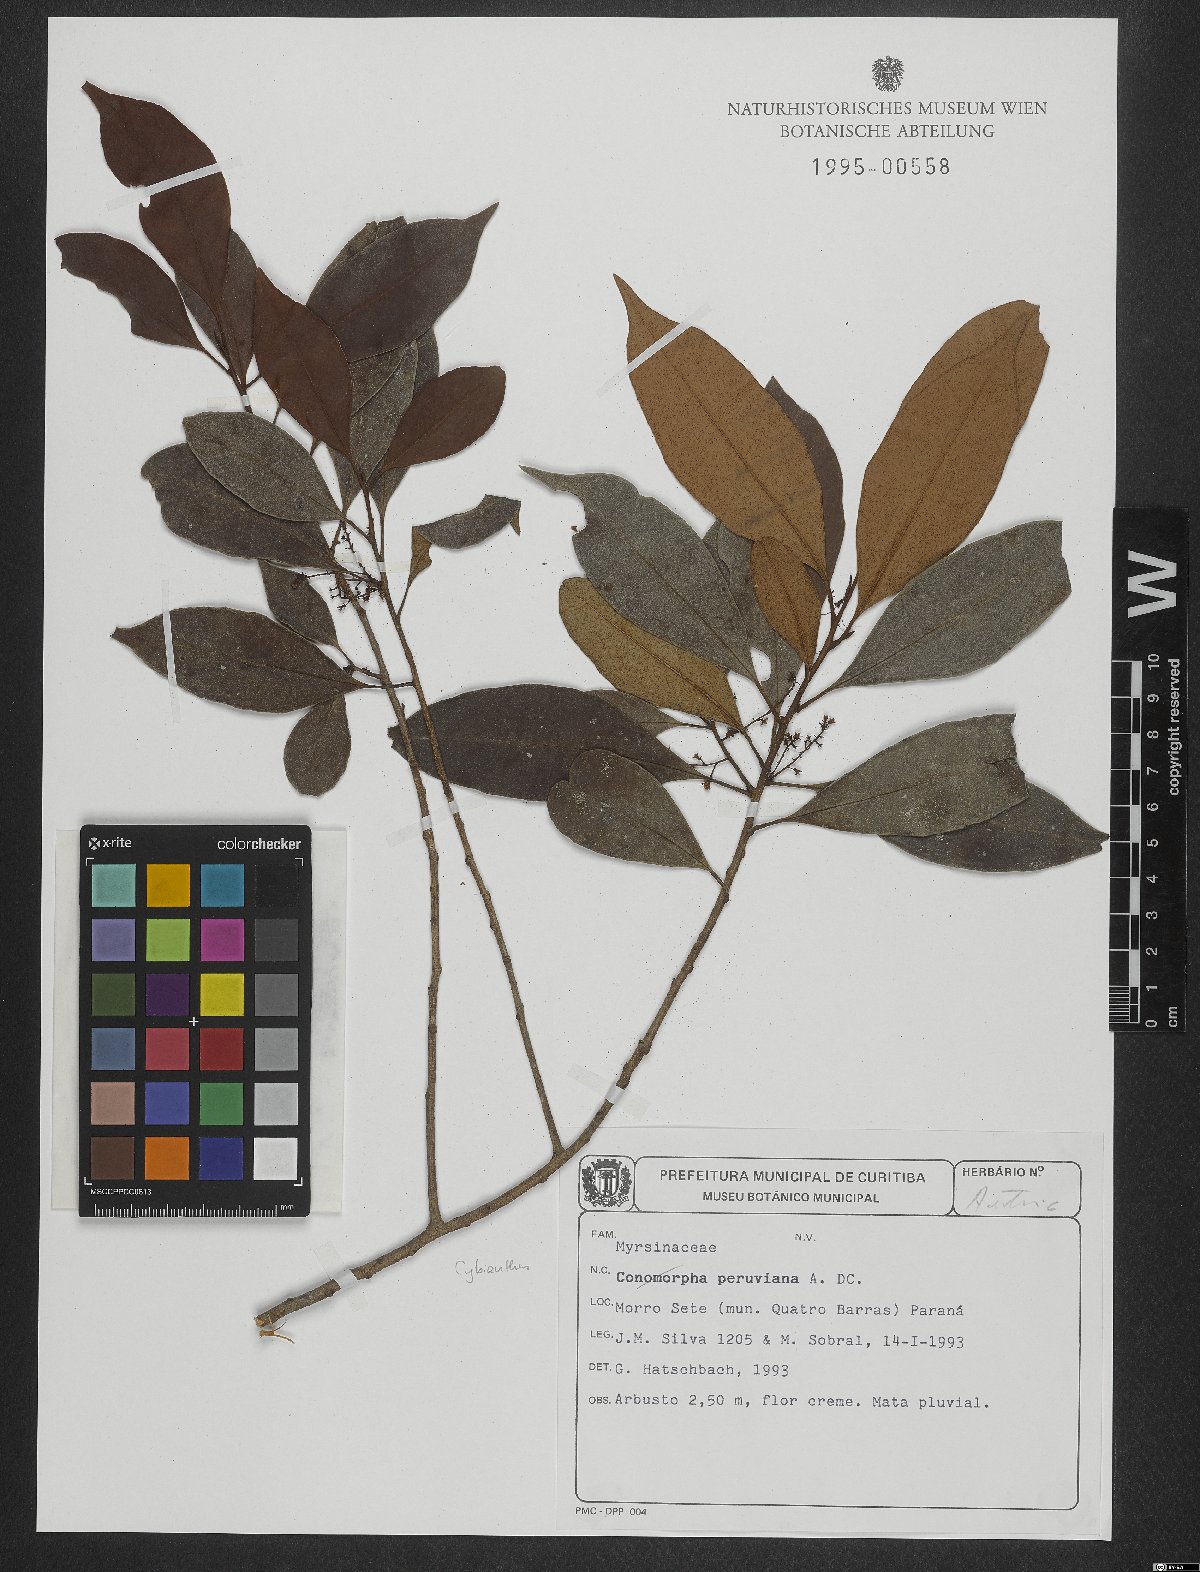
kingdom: Plantae
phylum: Tracheophyta
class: Magnoliopsida
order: Ericales
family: Primulaceae
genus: Cybianthus
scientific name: Cybianthus peruvianus
